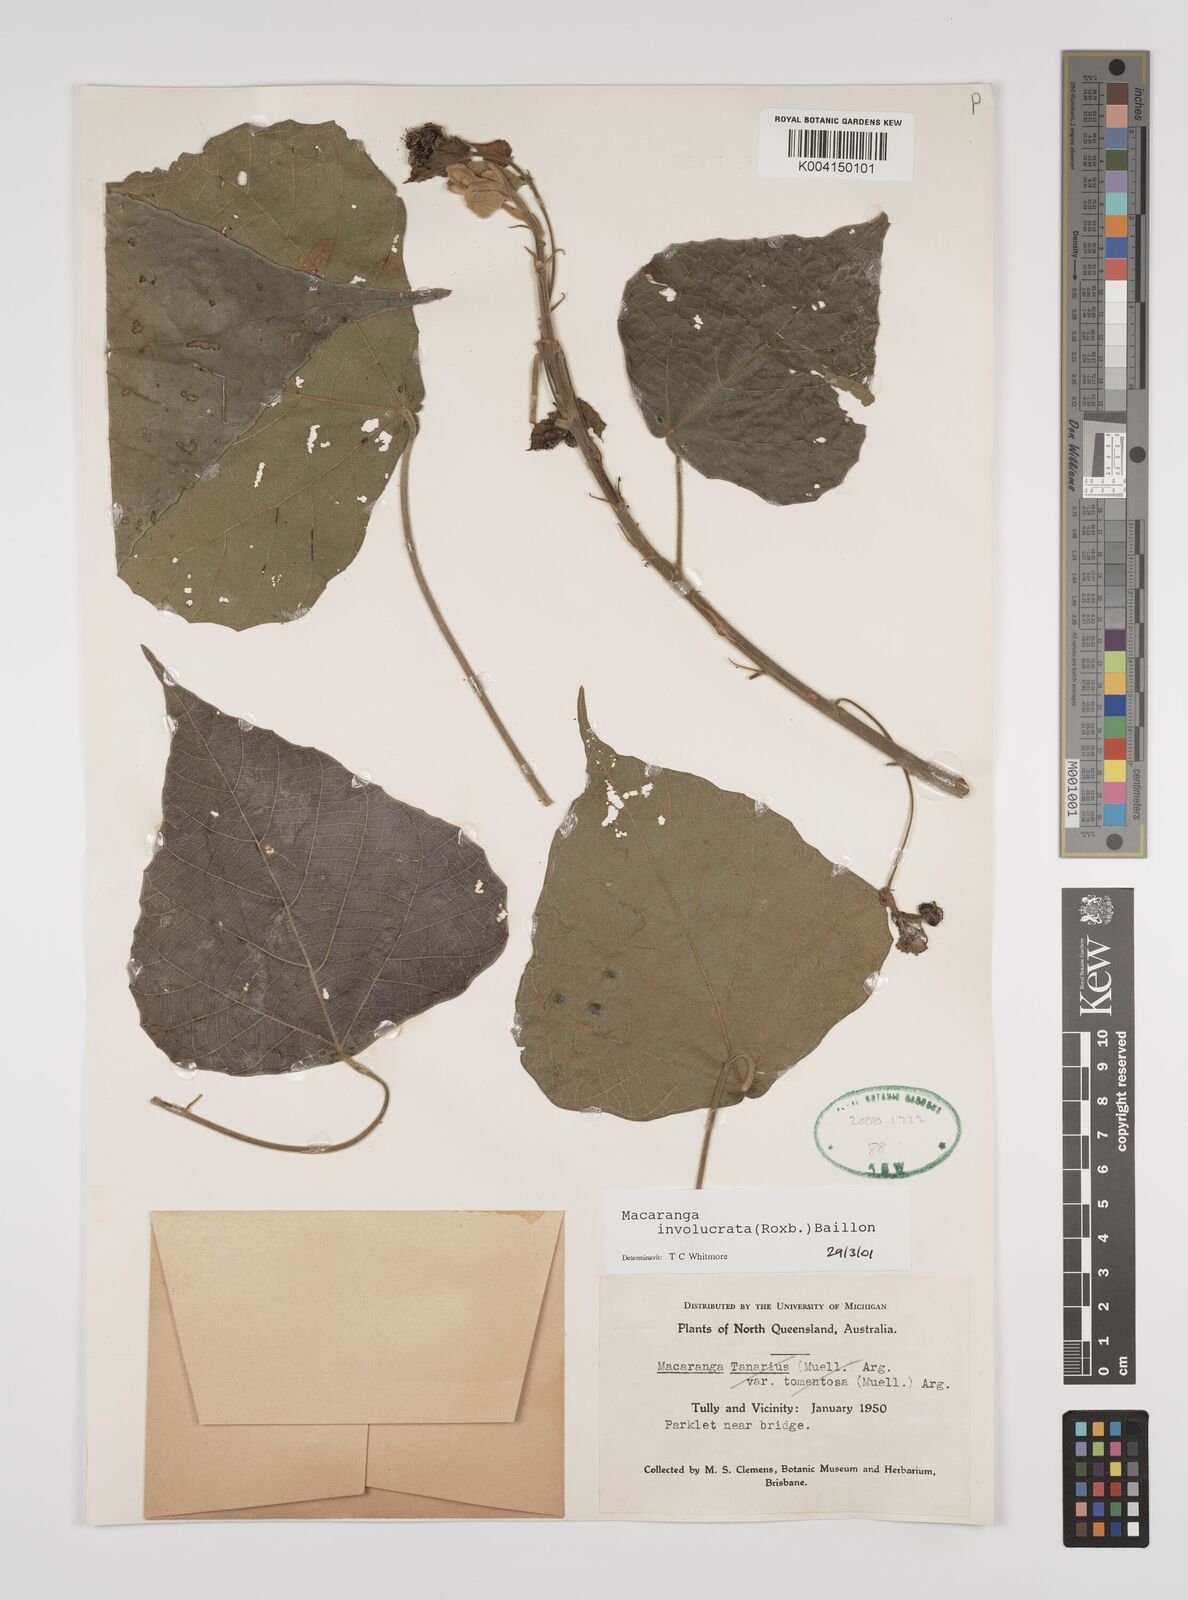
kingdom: Plantae
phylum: Tracheophyta
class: Magnoliopsida
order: Malpighiales
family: Euphorbiaceae
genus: Macaranga
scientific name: Macaranga involucrata
